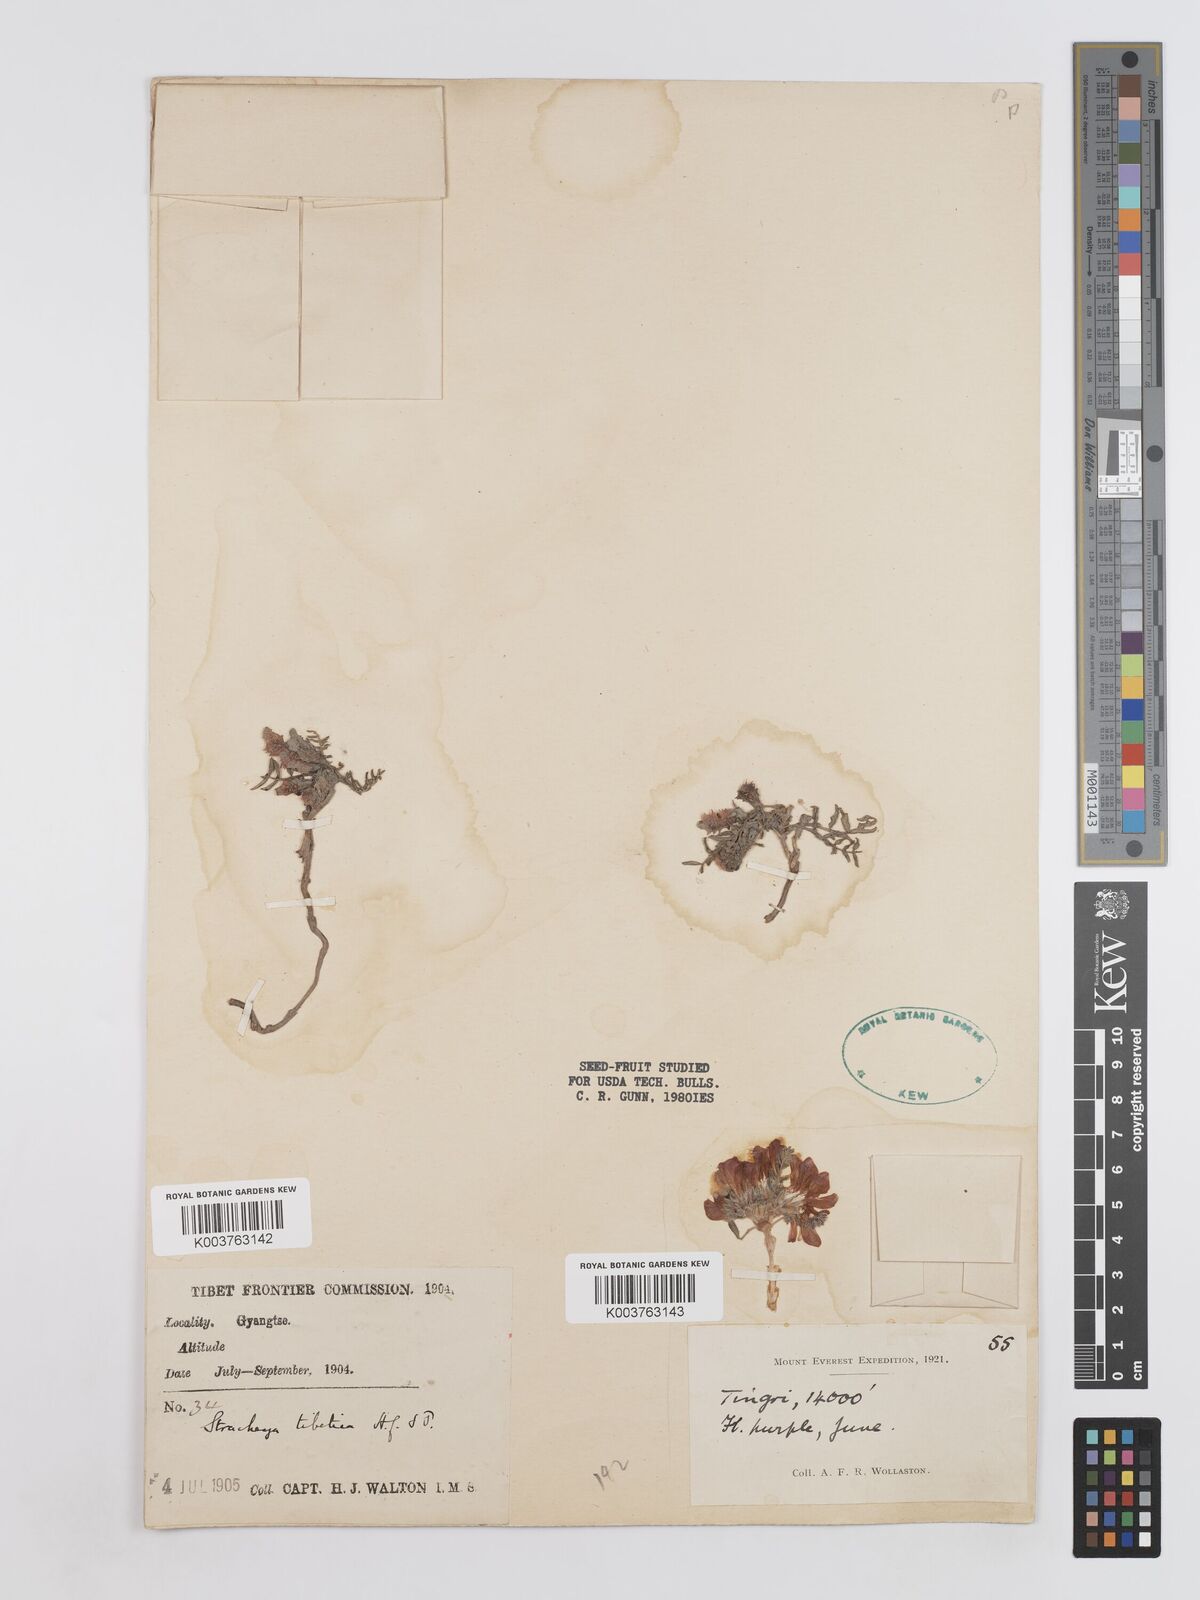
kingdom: Plantae
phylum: Tracheophyta
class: Magnoliopsida
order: Fabales
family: Fabaceae
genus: Hedysarum
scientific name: Hedysarum tibeticum
